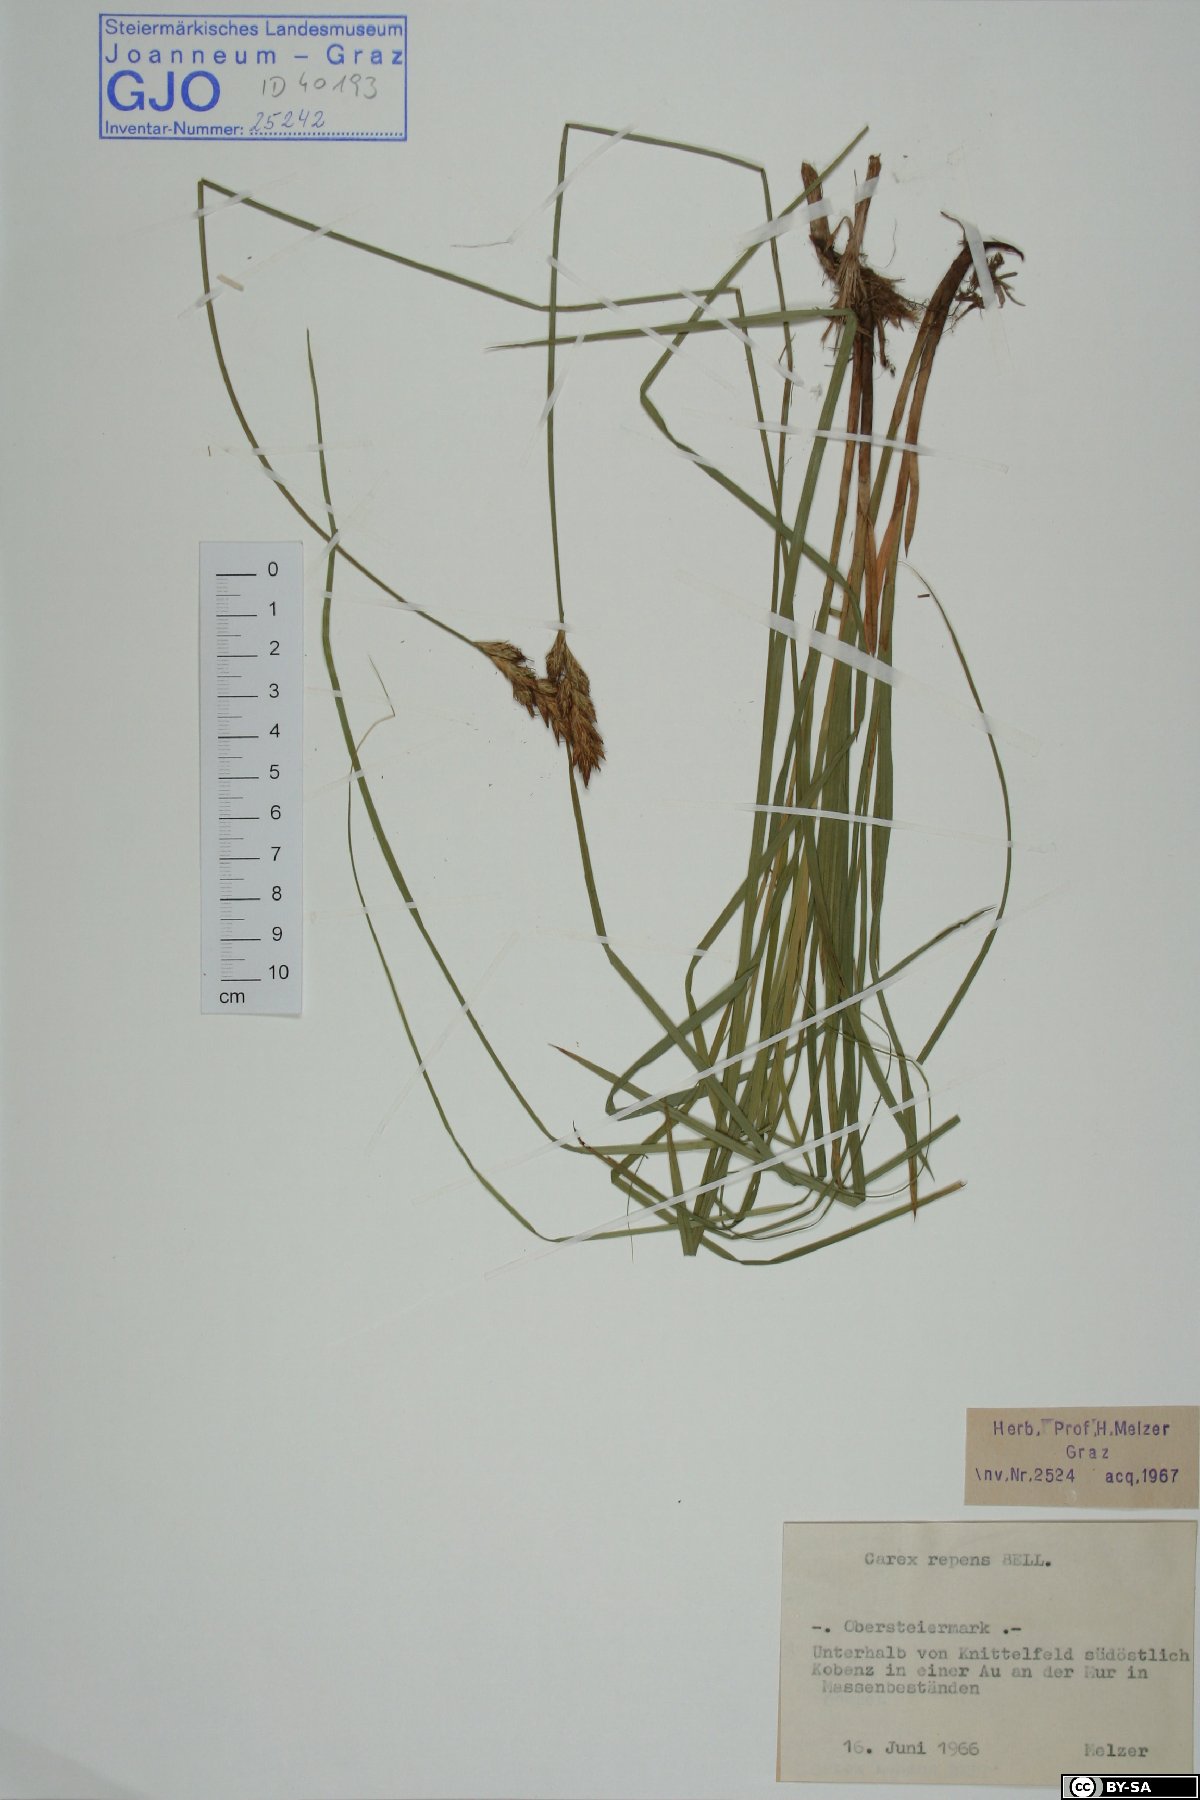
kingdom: Plantae
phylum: Tracheophyta
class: Liliopsida
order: Poales
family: Cyperaceae
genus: Carex
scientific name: Carex repens
